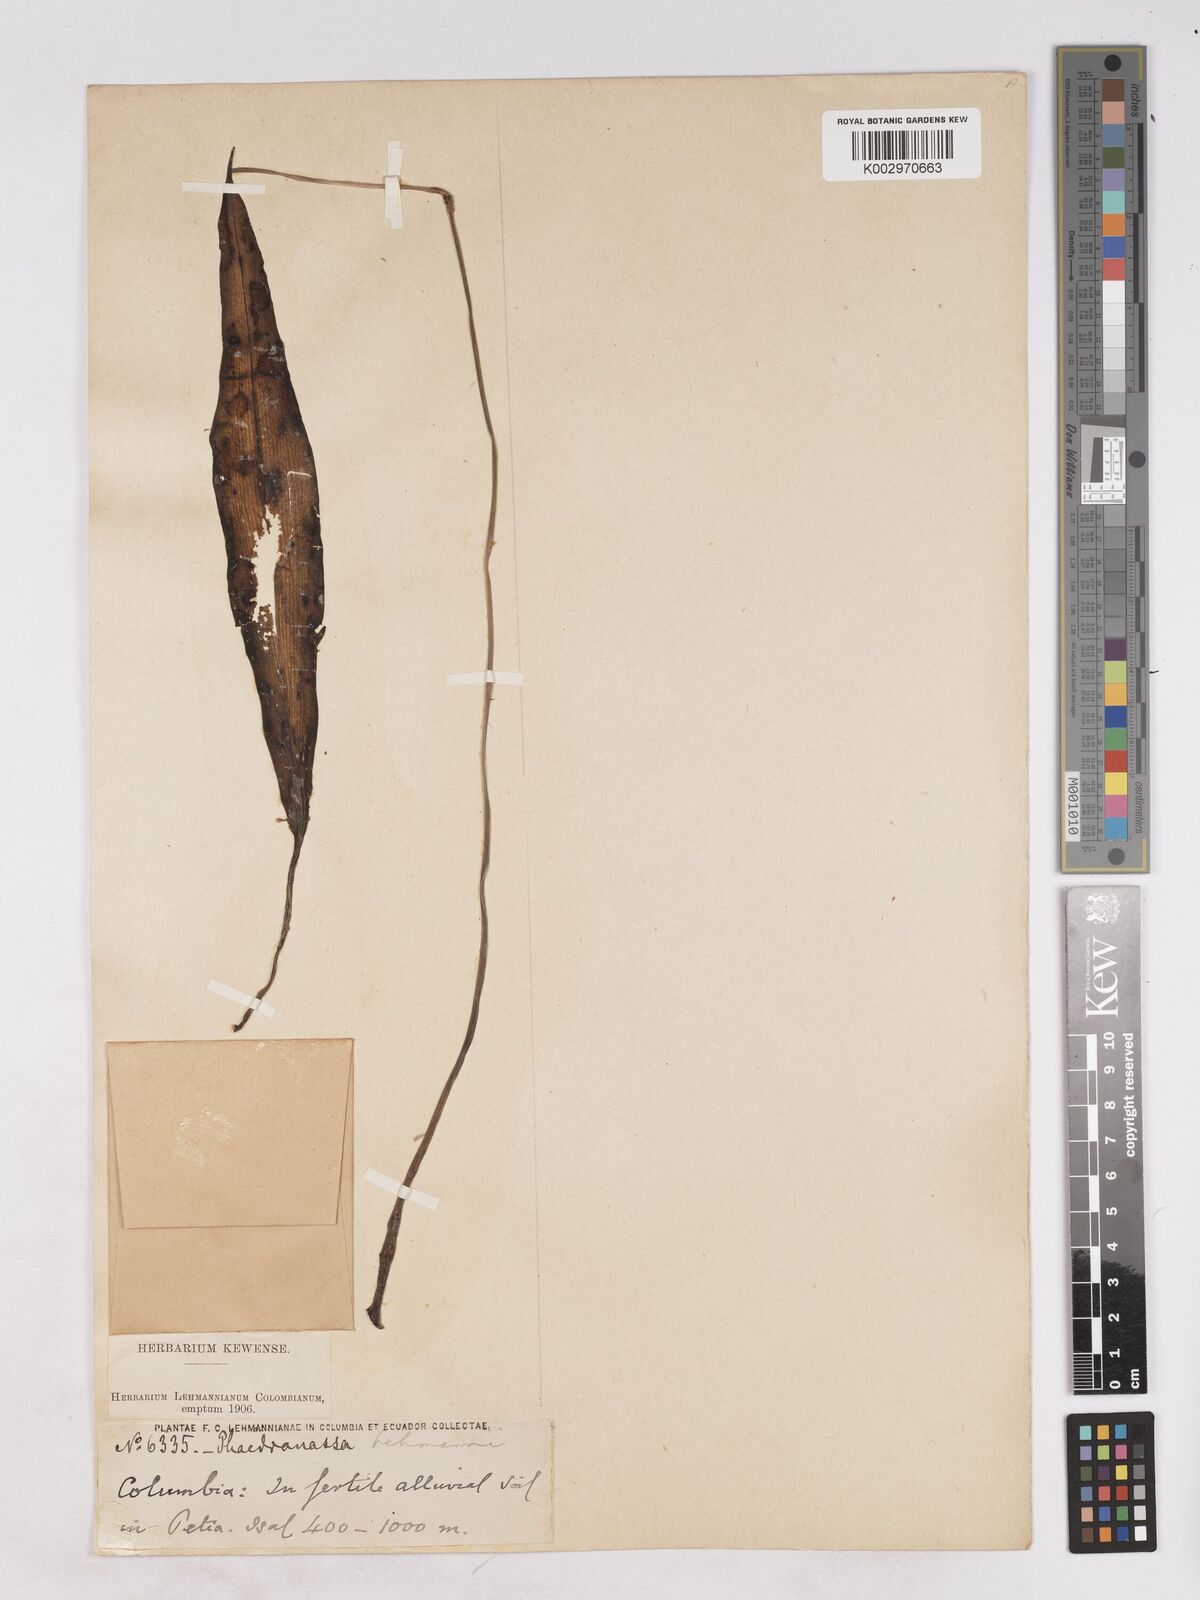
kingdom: Plantae
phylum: Tracheophyta
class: Liliopsida
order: Asparagales
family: Amaryllidaceae
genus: Phaedranassa
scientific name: Phaedranassa lehmannii
